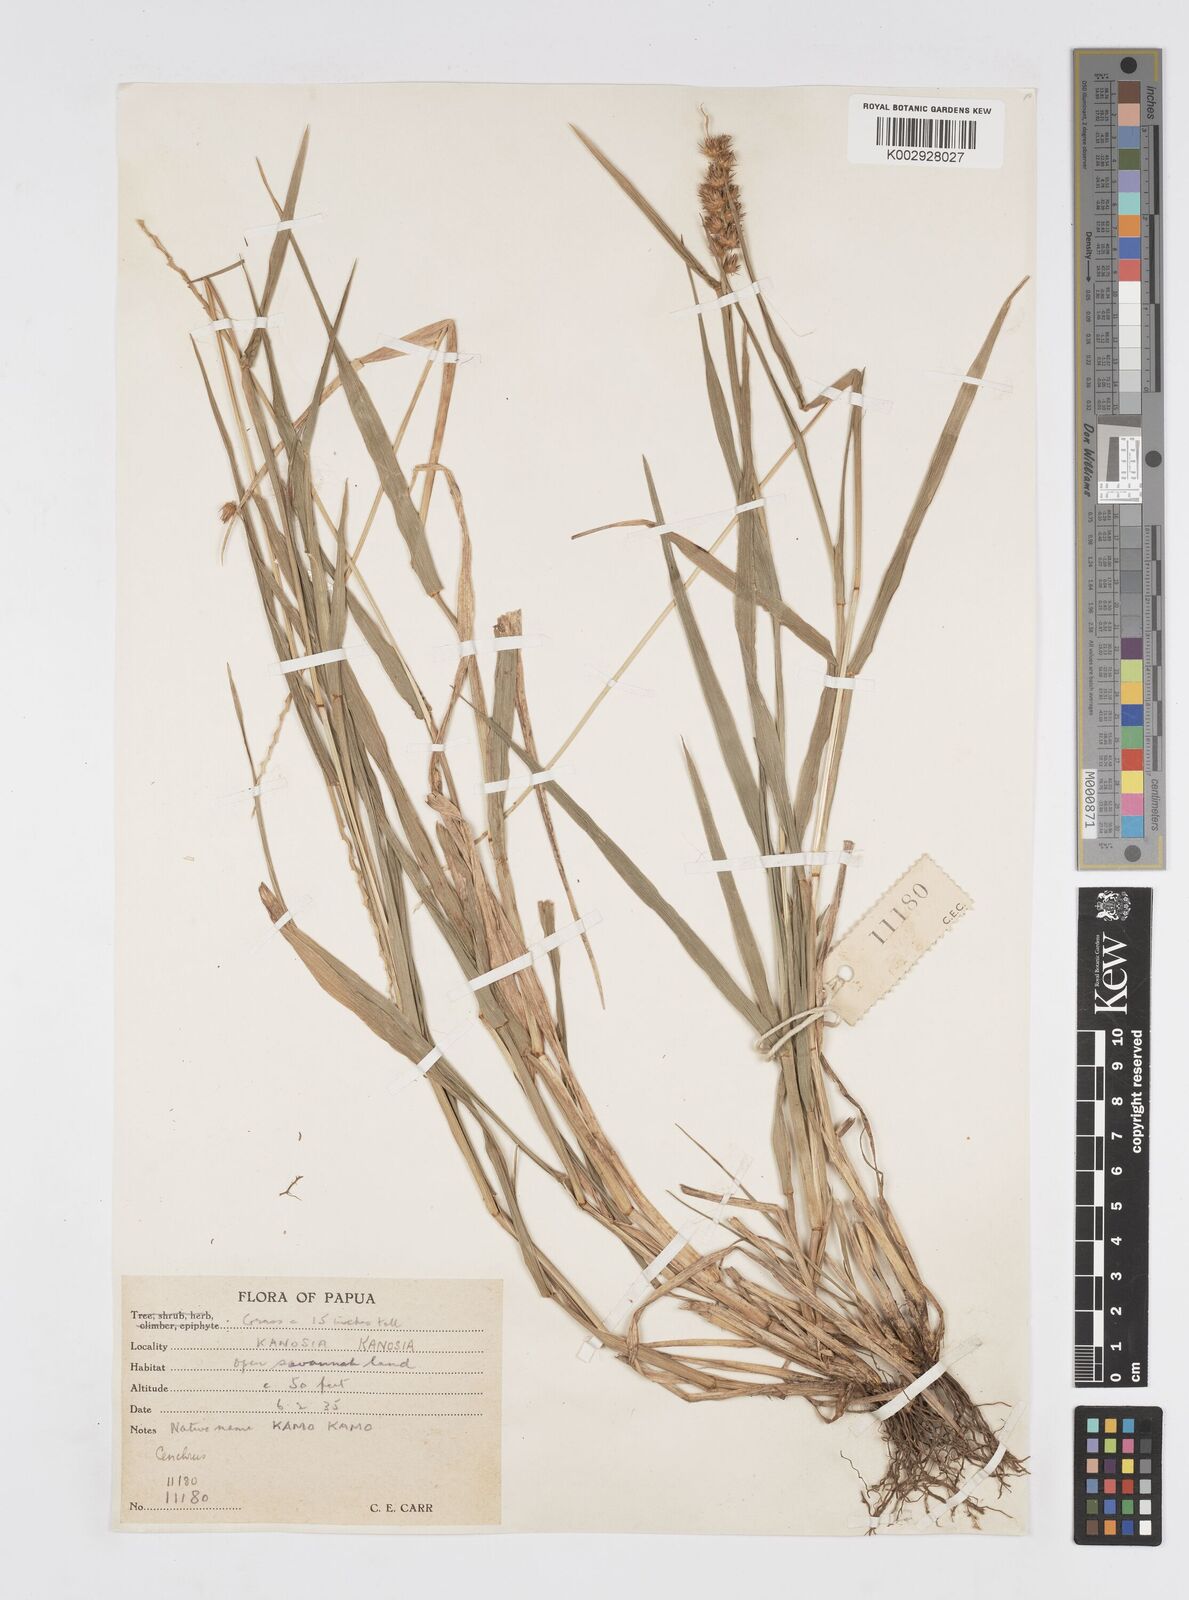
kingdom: Plantae
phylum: Tracheophyta
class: Liliopsida
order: Poales
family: Poaceae
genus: Cenchrus
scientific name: Cenchrus brownii
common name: Slim-bristle sandbur
